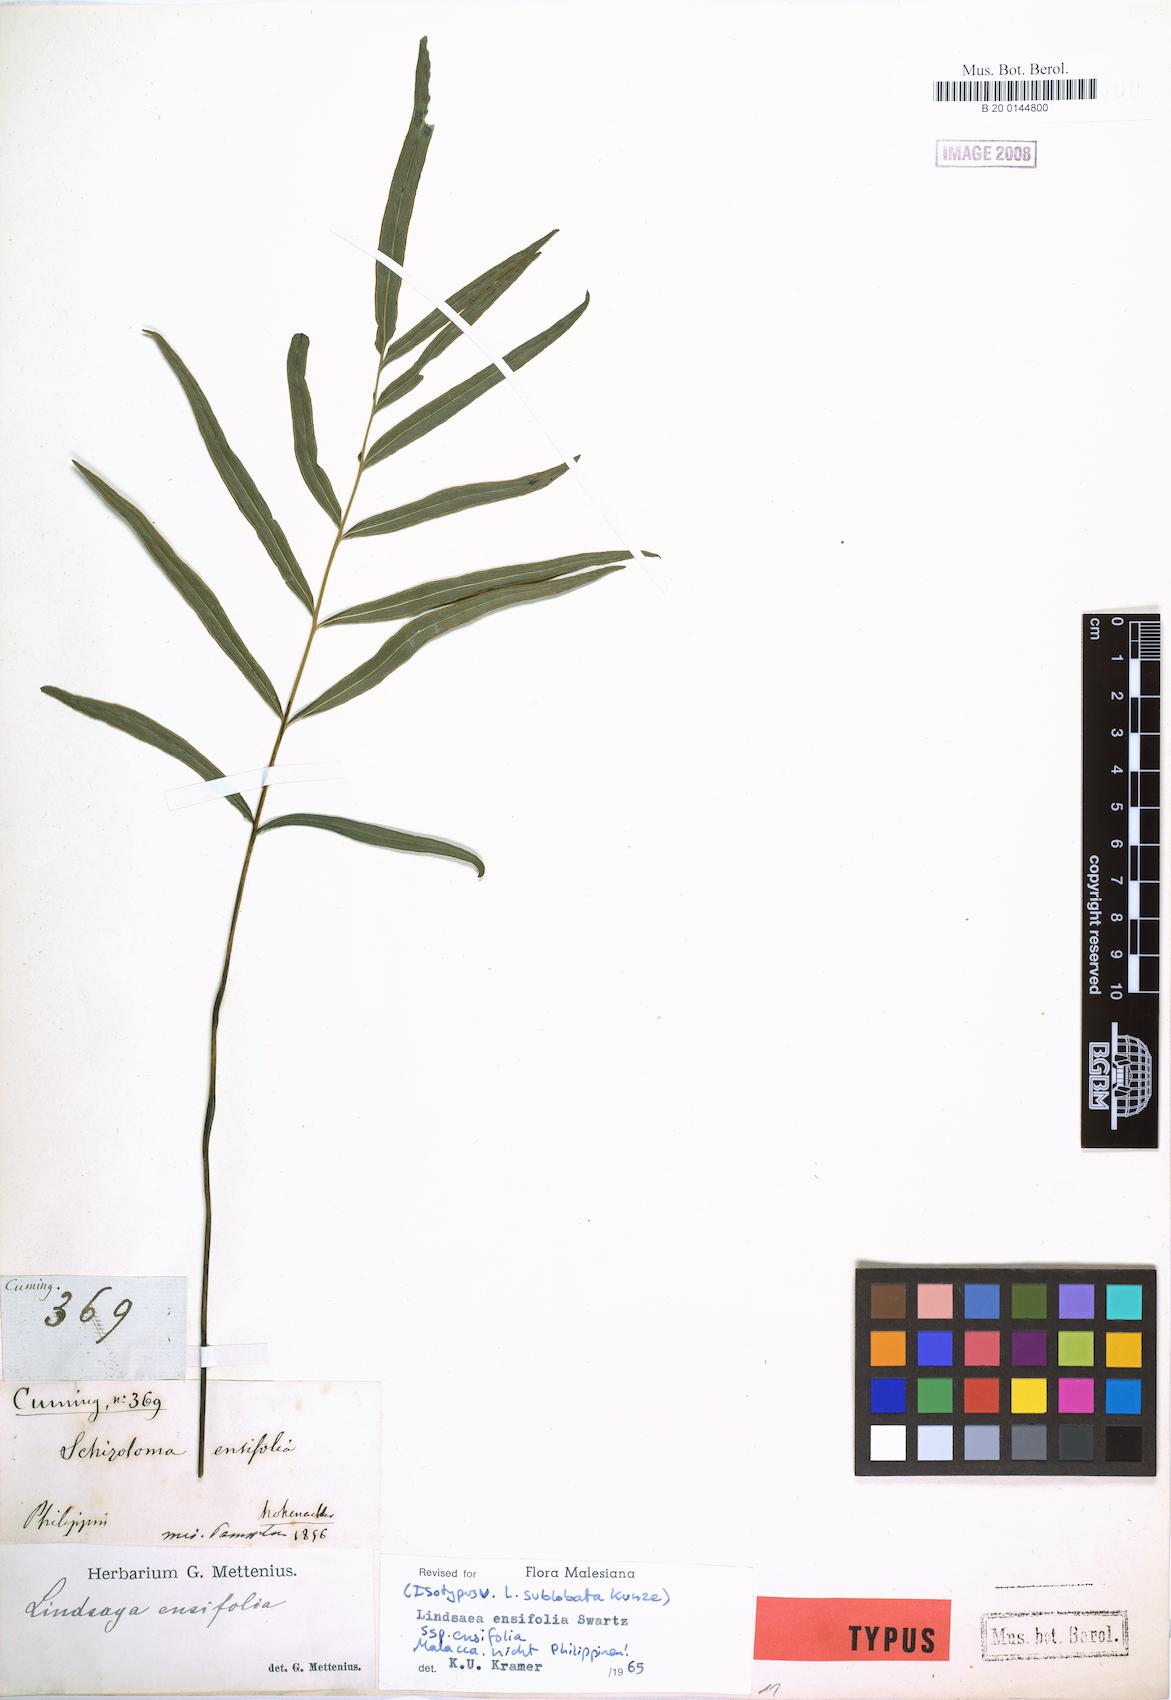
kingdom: Plantae
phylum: Tracheophyta
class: Polypodiopsida
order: Polypodiales
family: Lindsaeaceae
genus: Lindsaea
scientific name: Lindsaea ensifolia
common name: Graceful necklace fern
